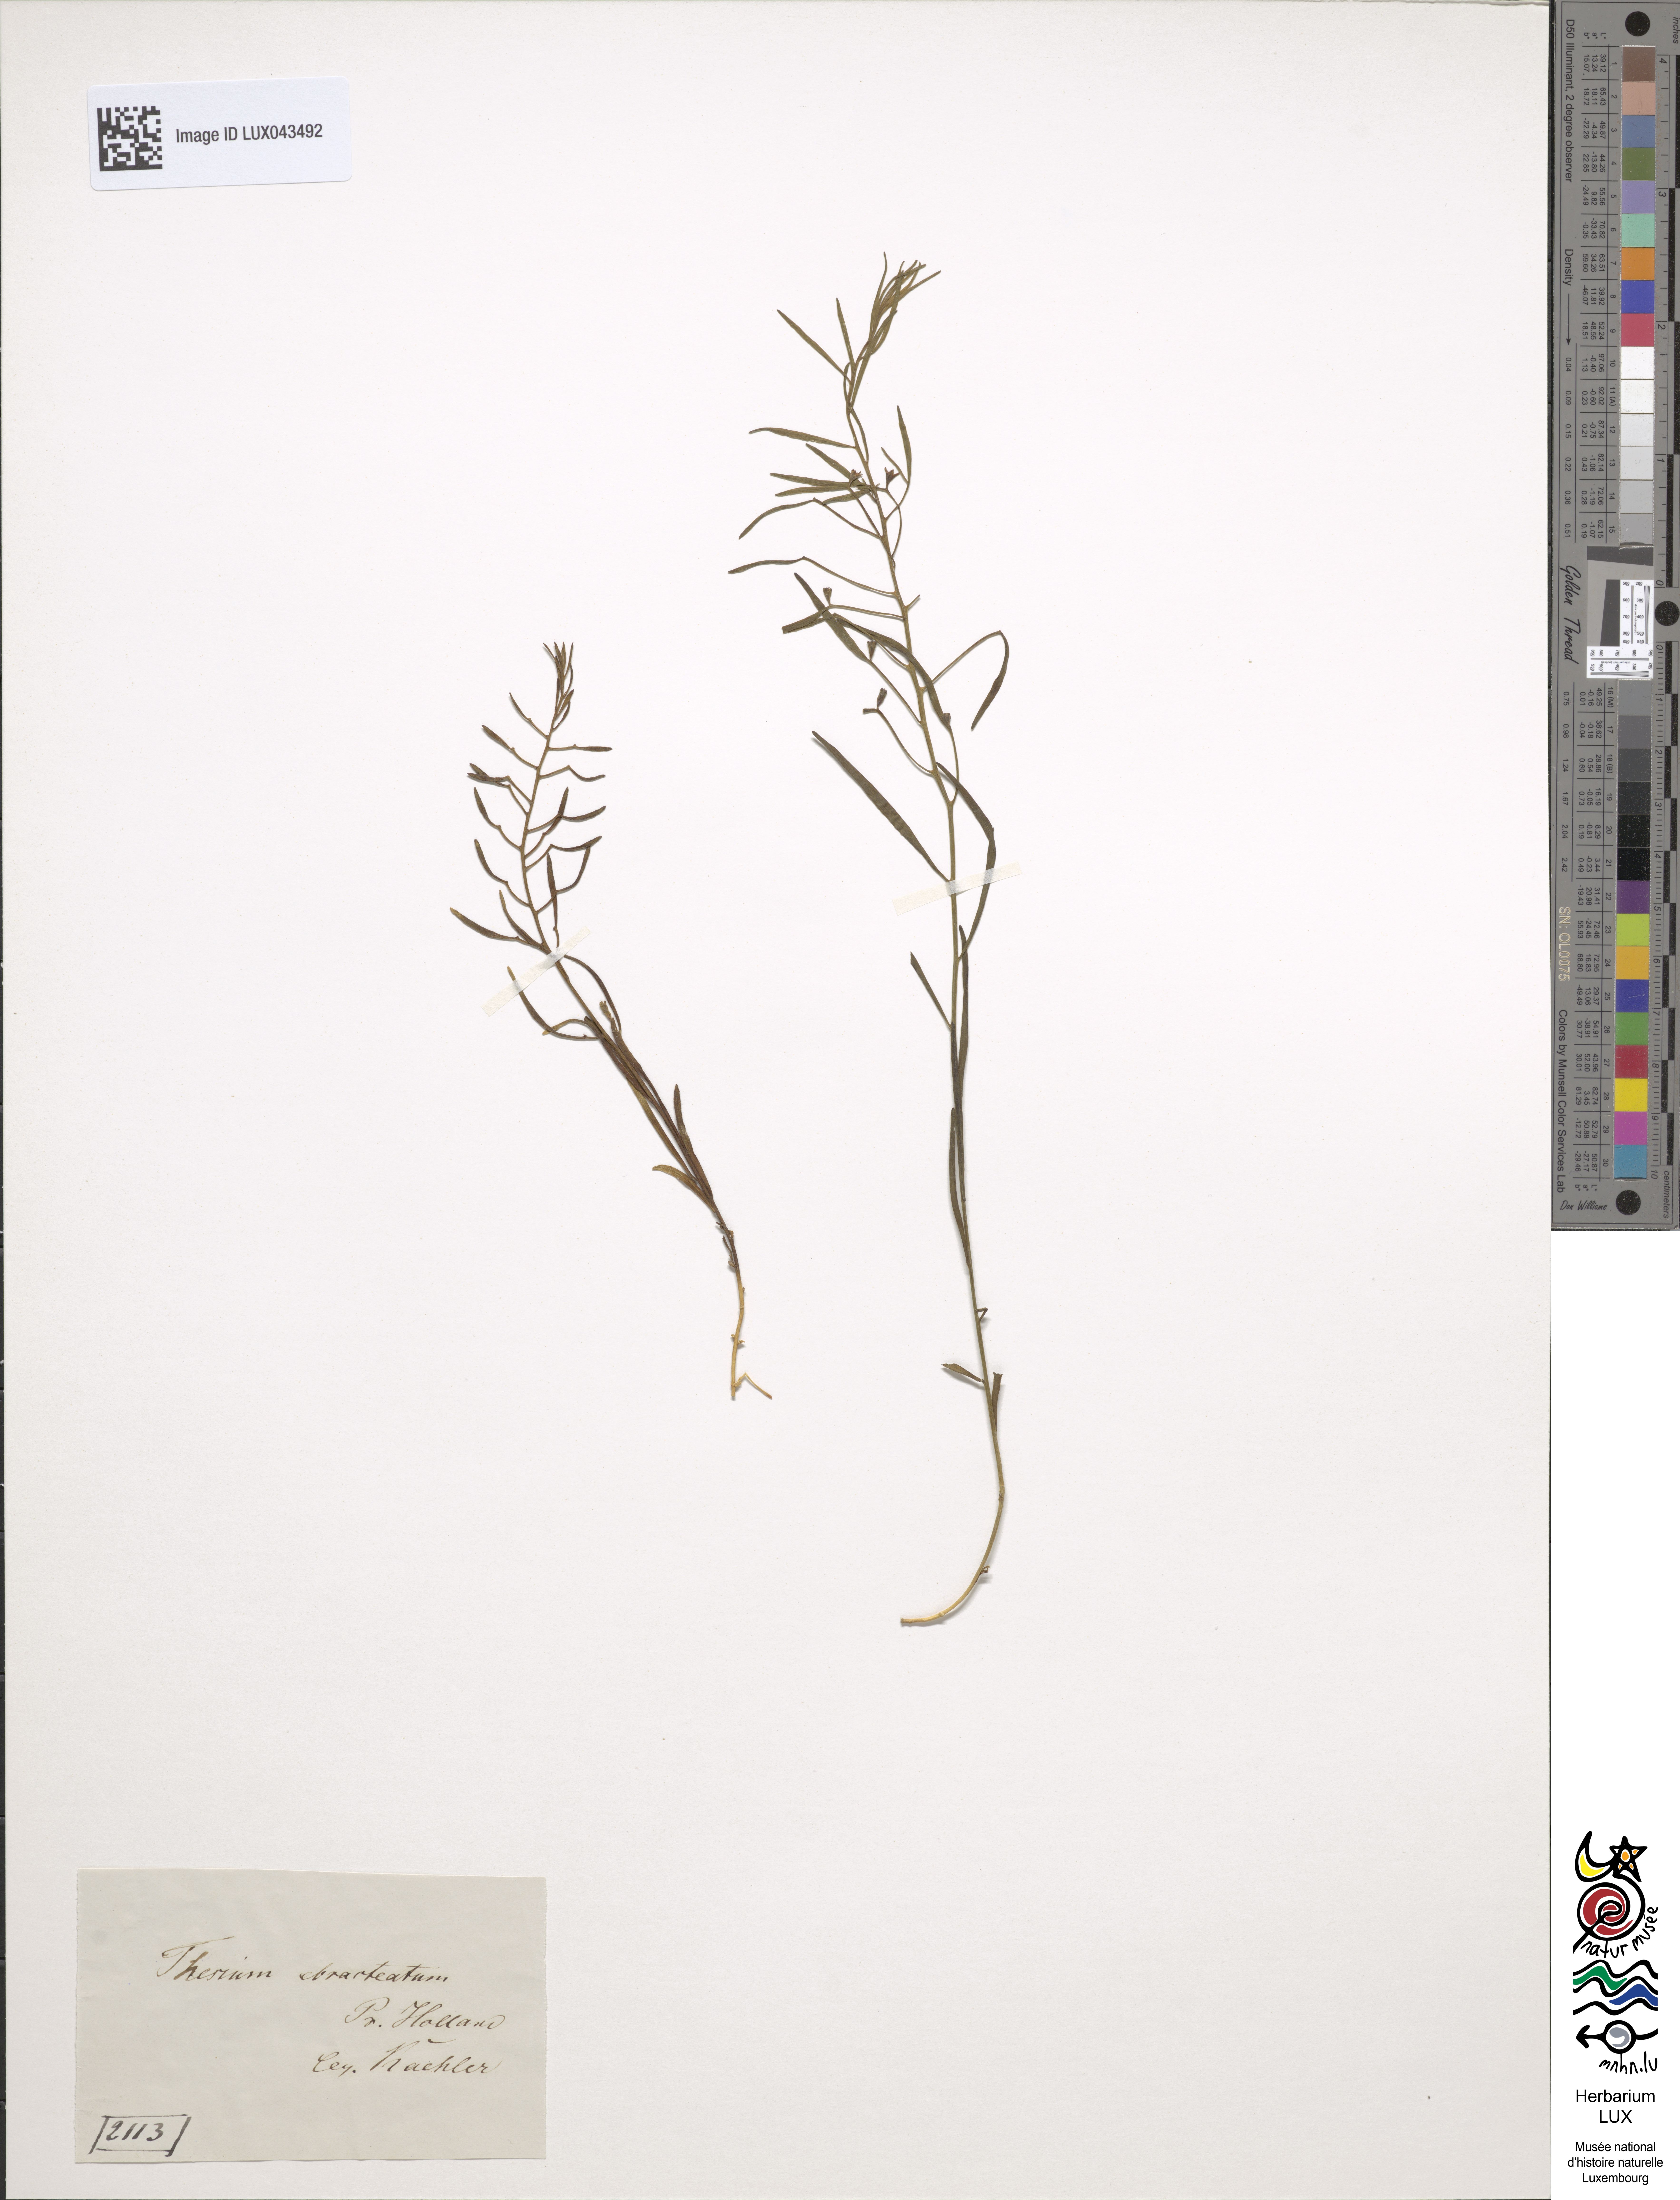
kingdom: Plantae
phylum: Tracheophyta
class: Magnoliopsida
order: Santalales
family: Thesiaceae
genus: Thesium
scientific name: Thesium ebracteatum
